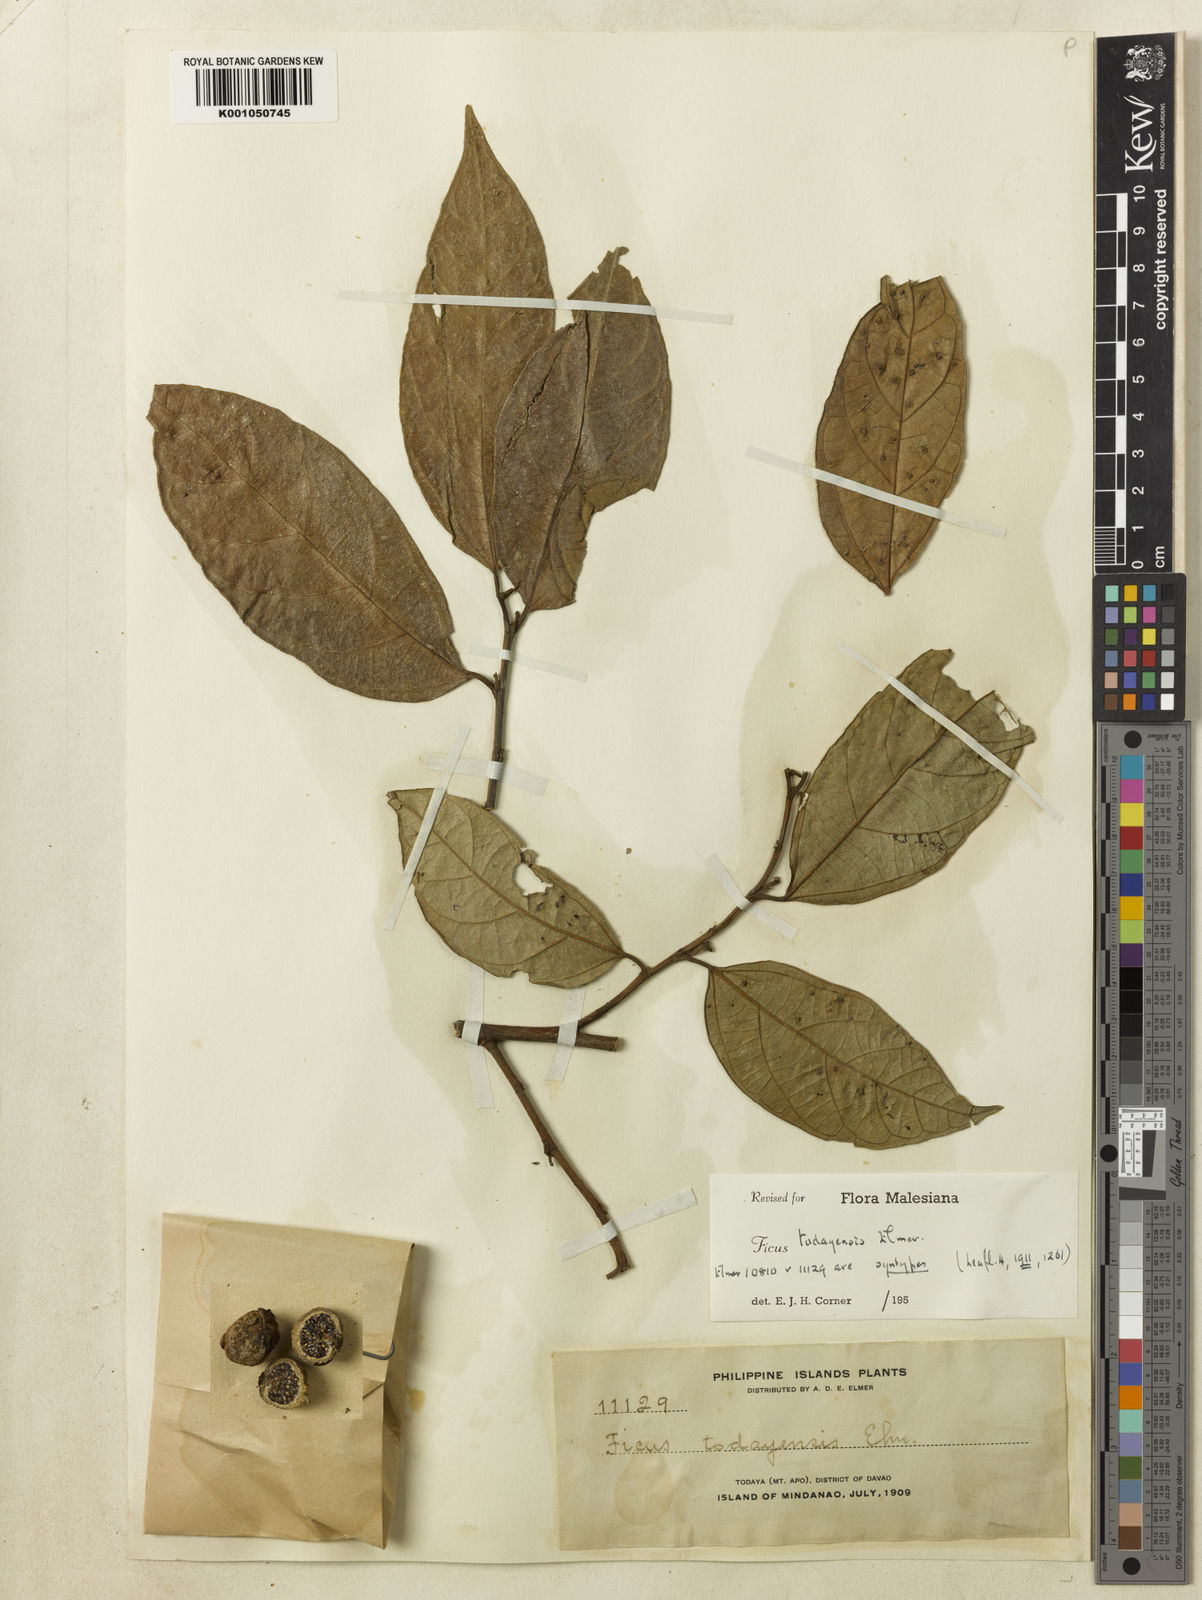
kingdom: Plantae
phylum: Tracheophyta
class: Magnoliopsida
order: Rosales
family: Moraceae
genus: Ficus
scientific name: Ficus ampelos
